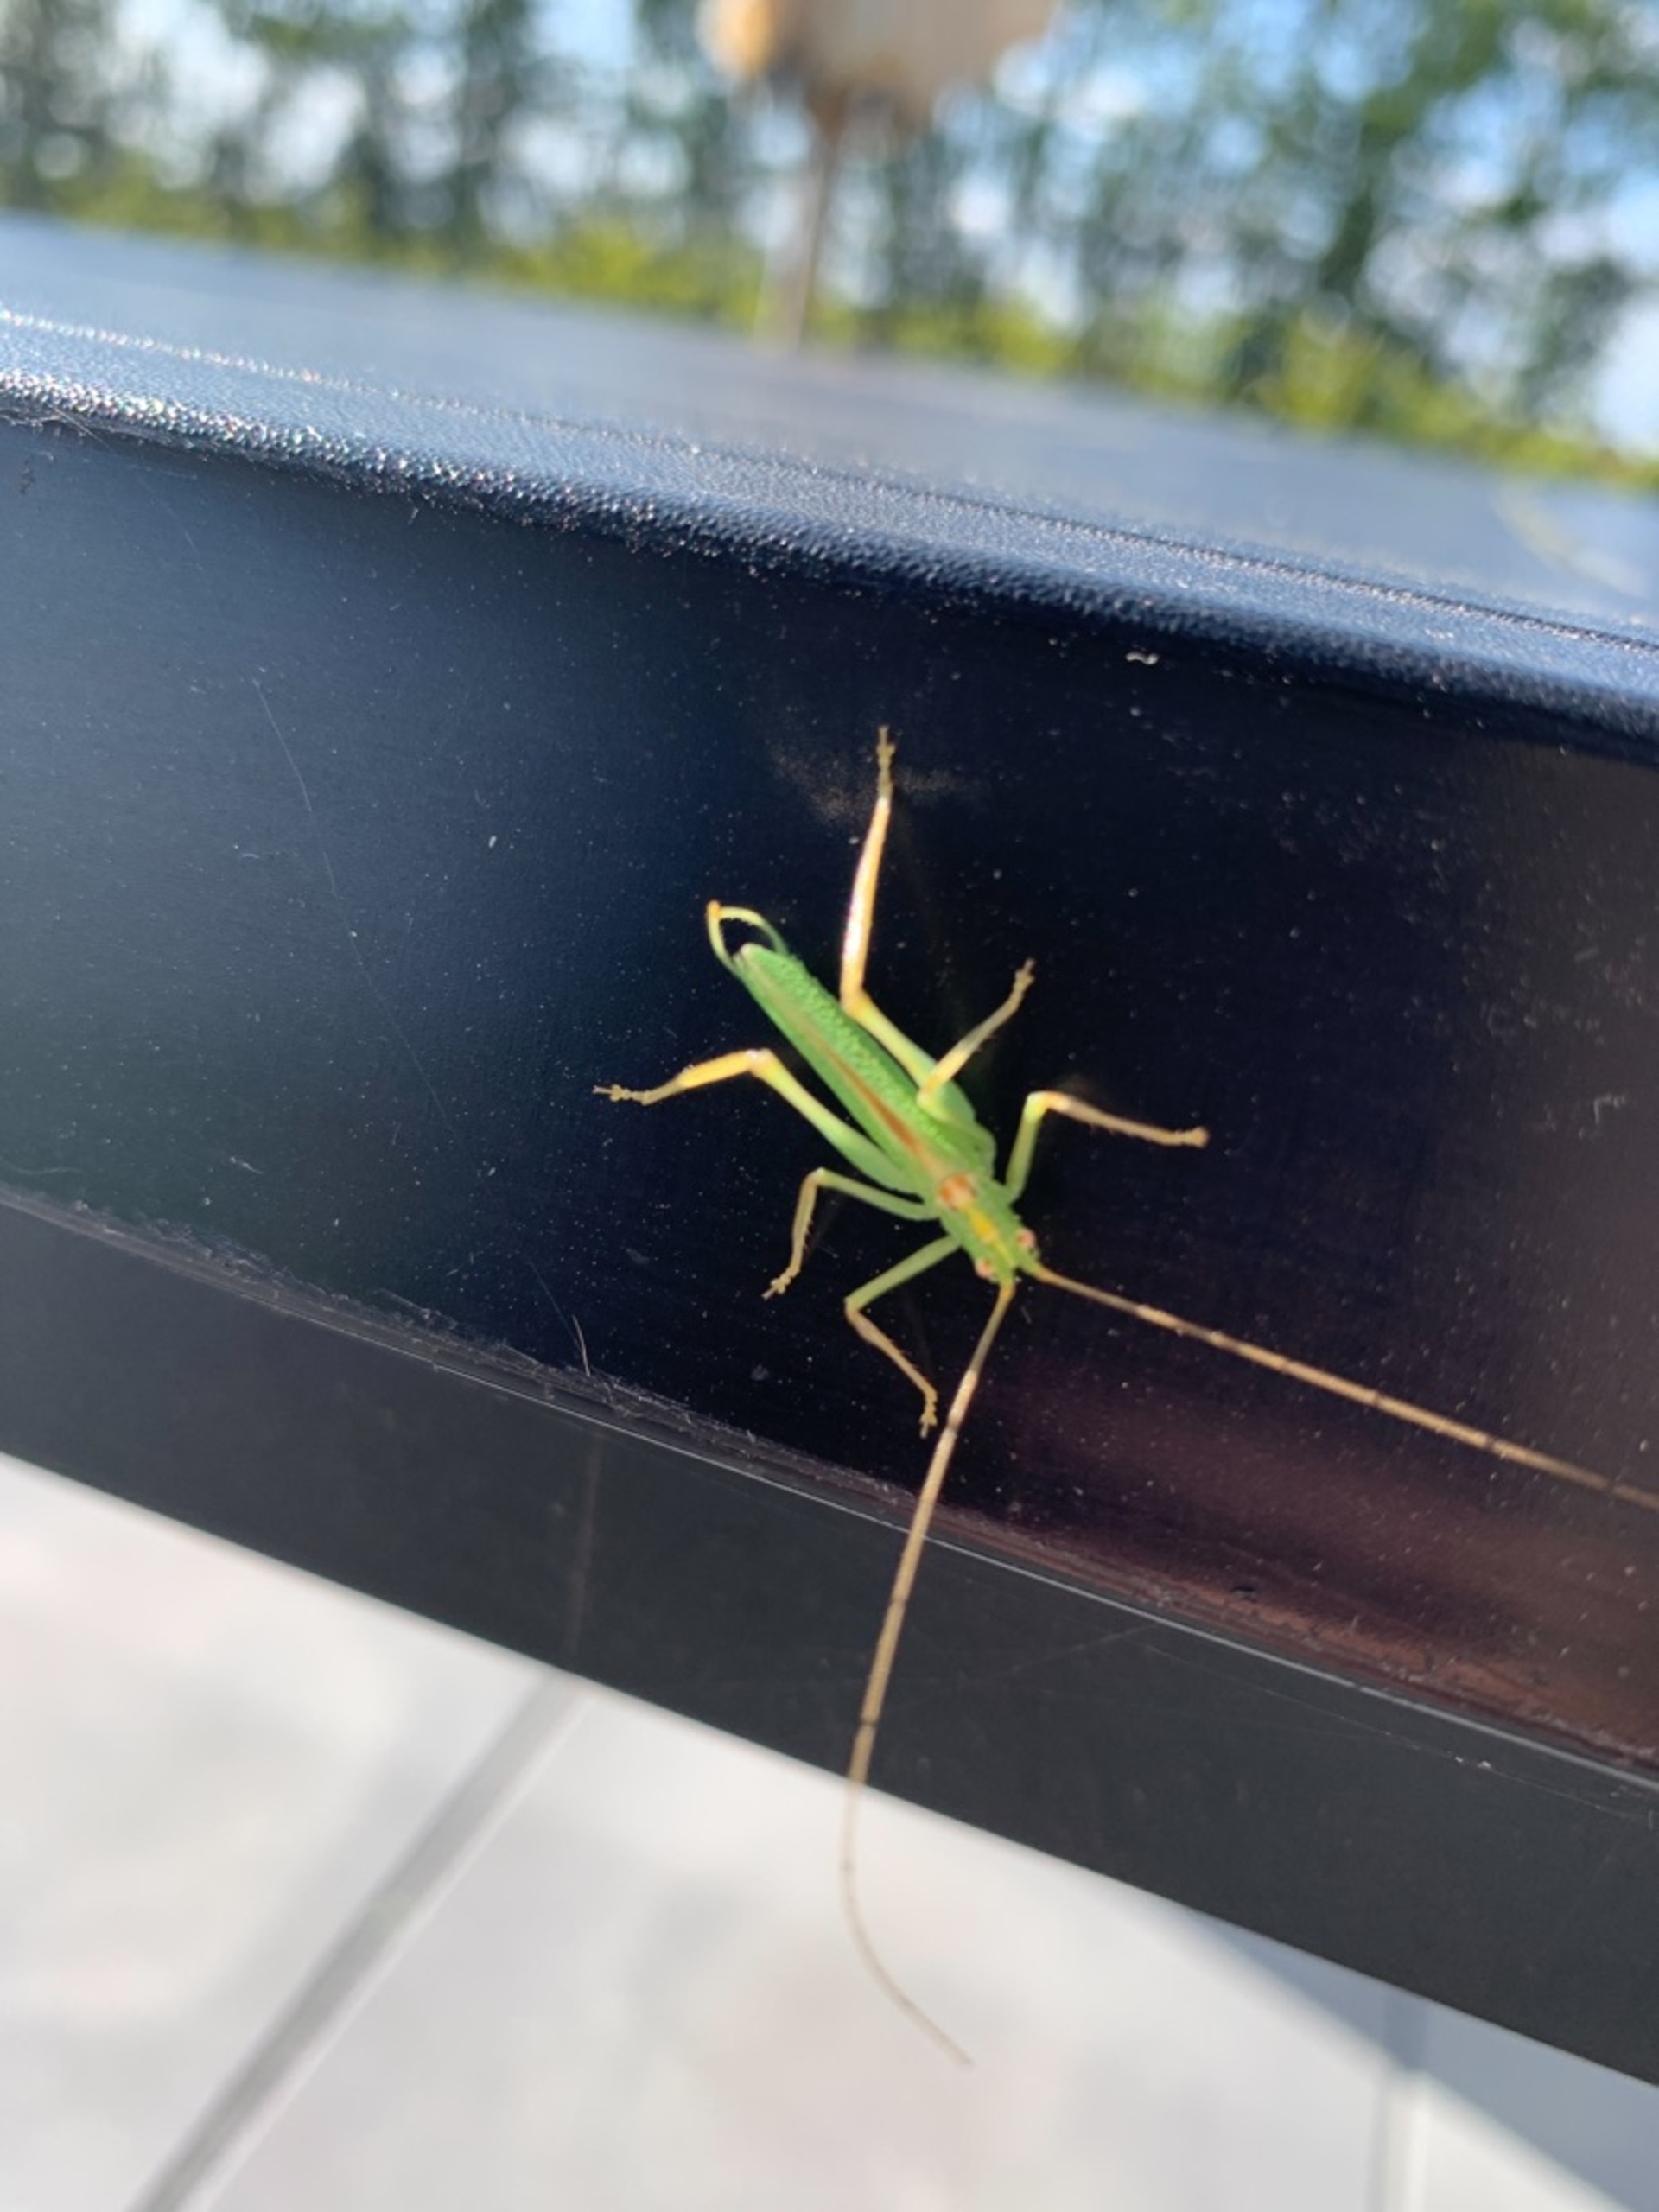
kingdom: Animalia
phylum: Arthropoda
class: Insecta
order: Orthoptera
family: Tettigoniidae
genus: Meconema
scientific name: Meconema thalassinum
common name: Egegræshoppe
